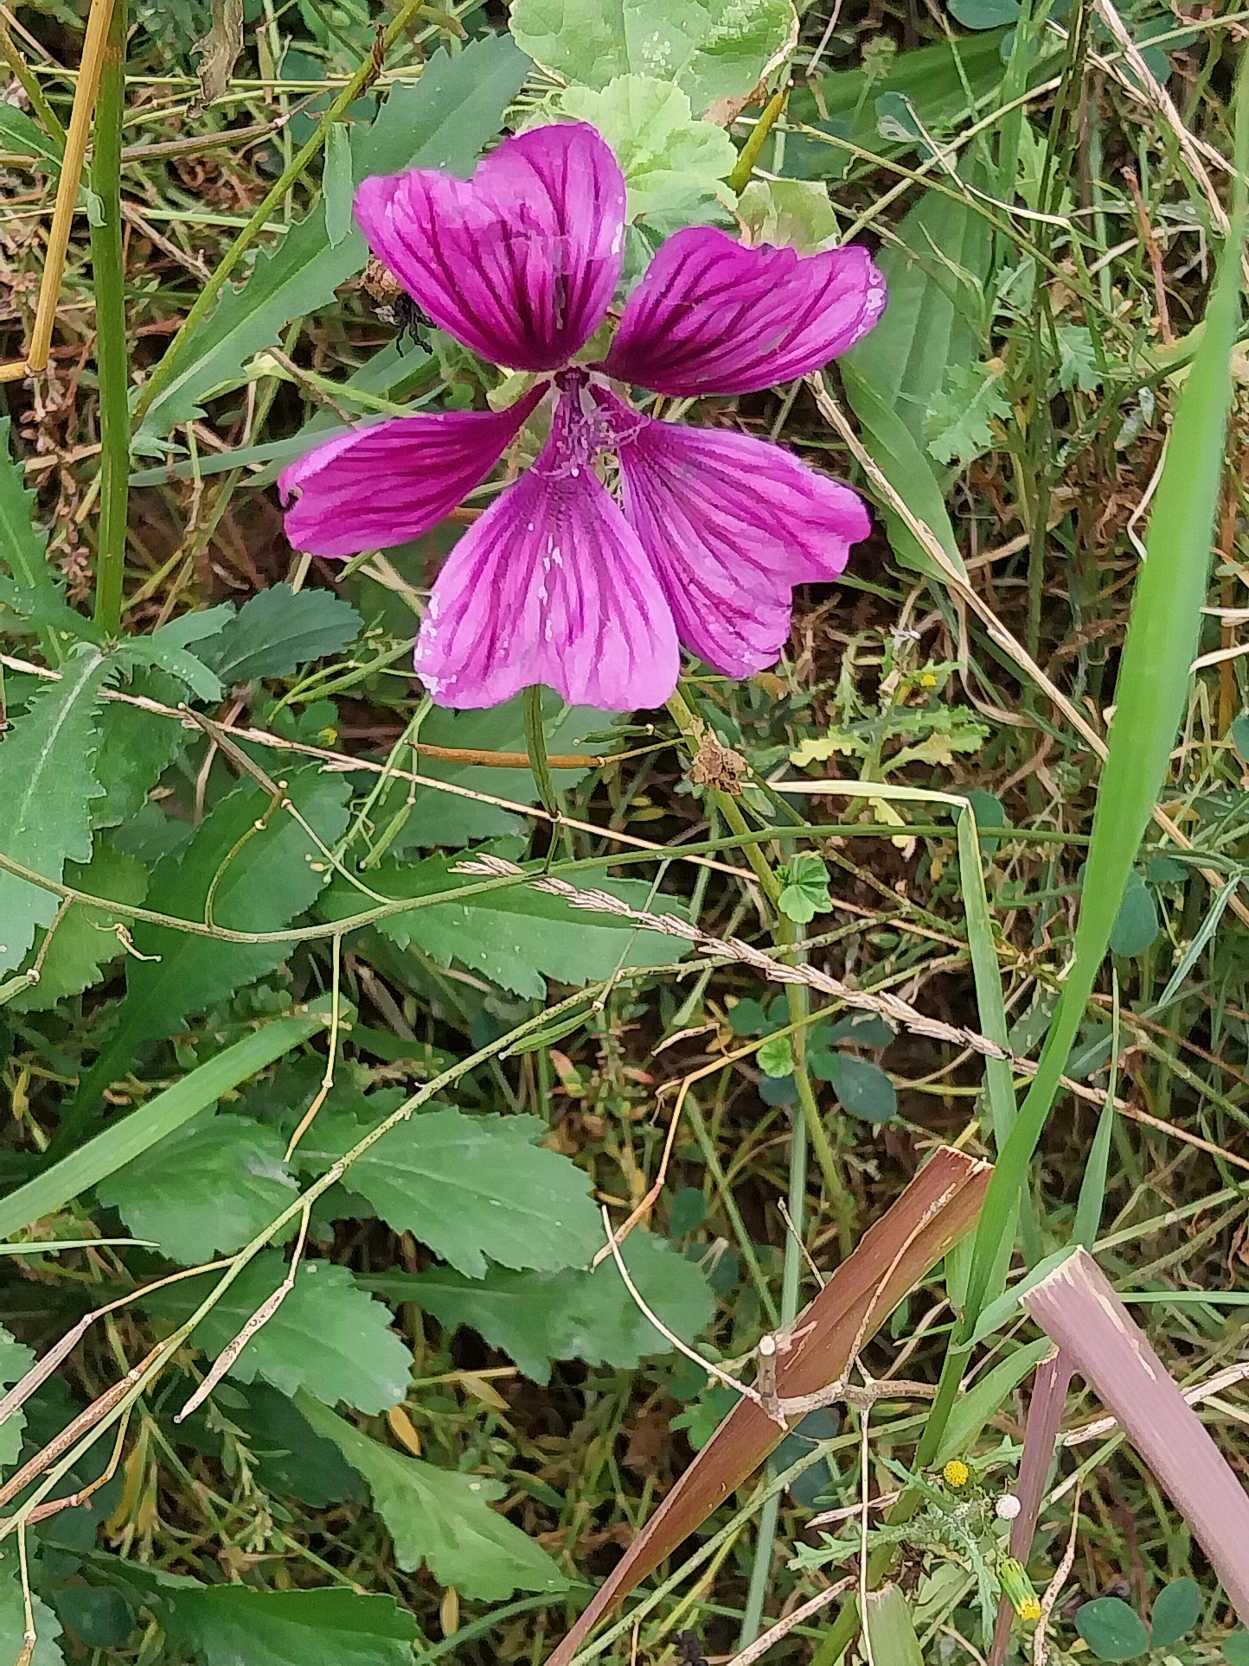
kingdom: Plantae
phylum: Tracheophyta
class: Magnoliopsida
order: Malvales
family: Malvaceae
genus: Malva
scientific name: Malva sylvestris
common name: Stor katost
